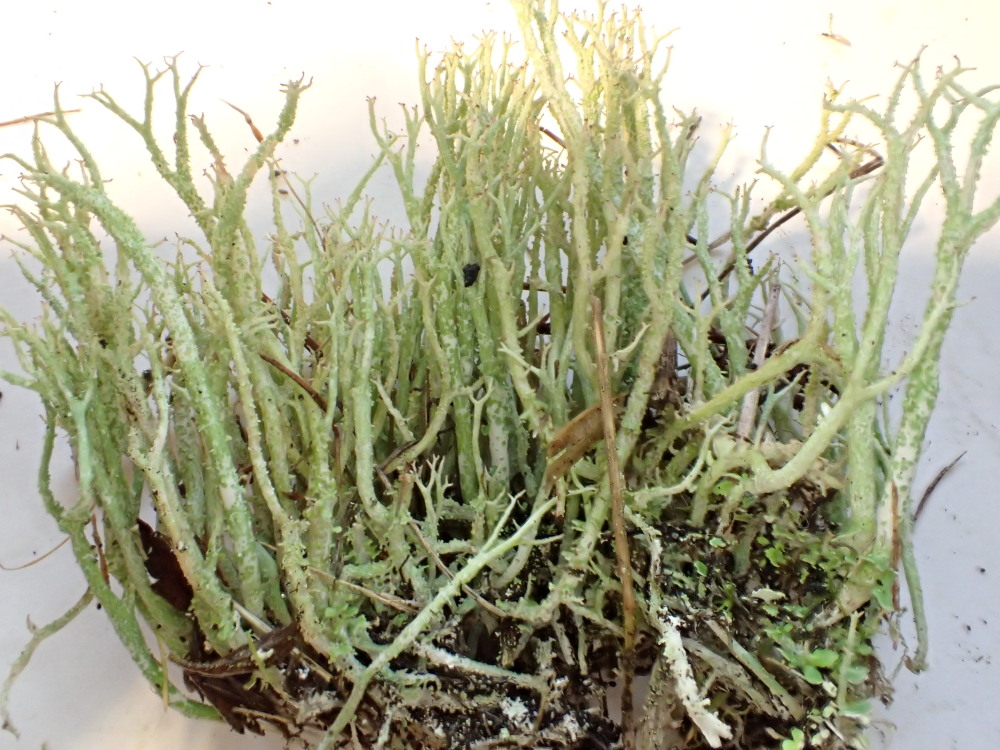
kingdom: Fungi
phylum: Ascomycota
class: Lecanoromycetes
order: Lecanorales
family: Cladoniaceae
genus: Cladonia
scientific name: Cladonia scabriuscula
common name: ru bægerlav
